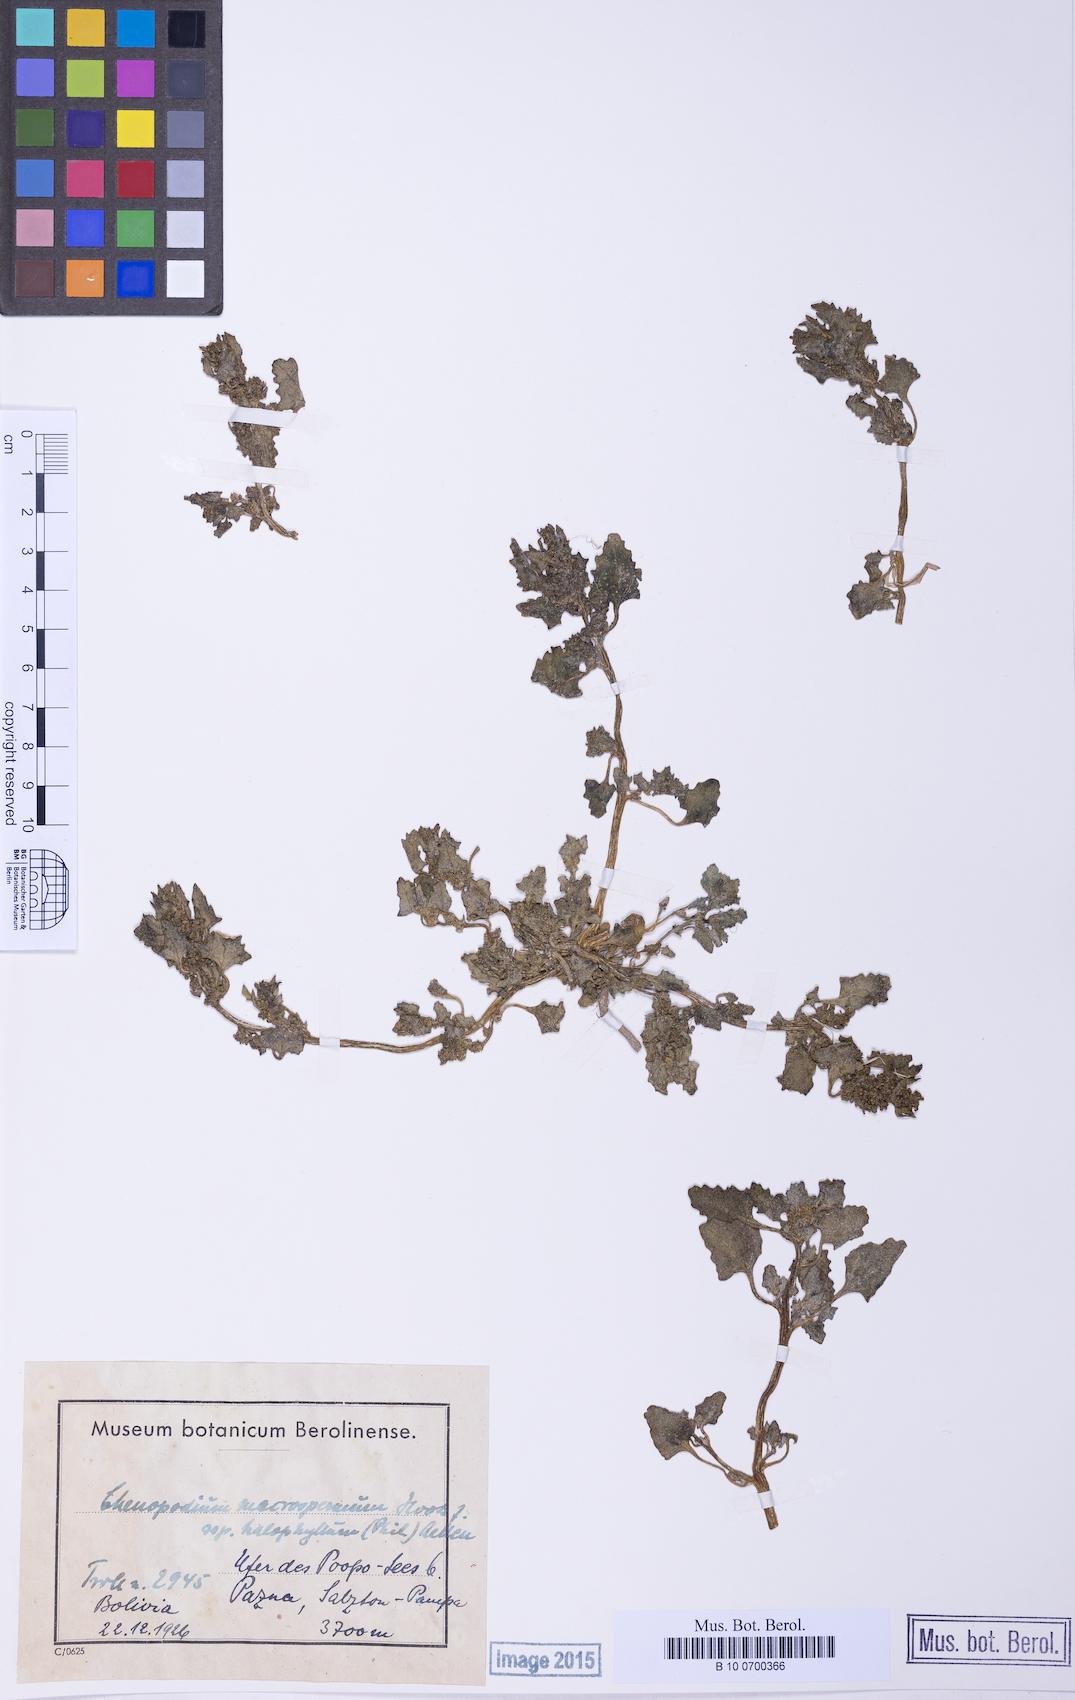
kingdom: Plantae
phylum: Tracheophyta
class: Magnoliopsida
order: Caryophyllales
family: Amaranthaceae
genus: Oxybasis
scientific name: Oxybasis halophila
